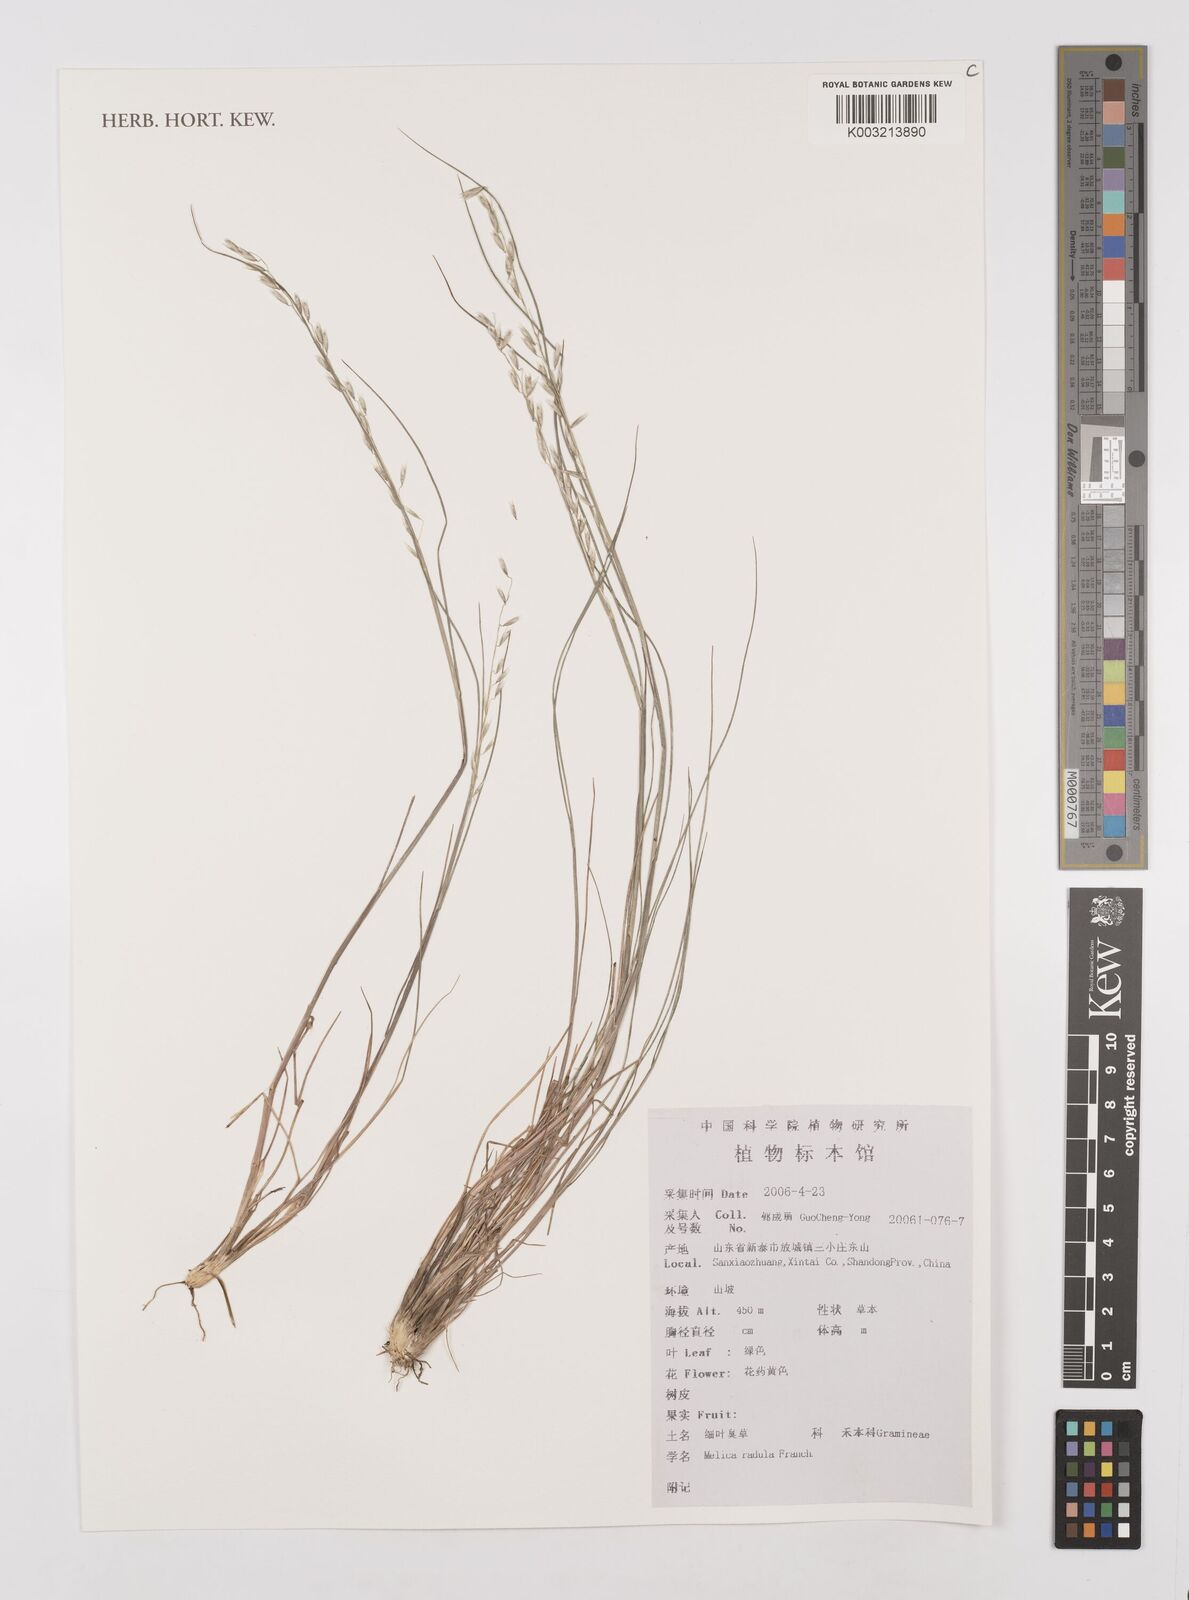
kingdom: Plantae
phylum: Tracheophyta
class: Liliopsida
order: Poales
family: Poaceae
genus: Melica
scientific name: Melica radula
